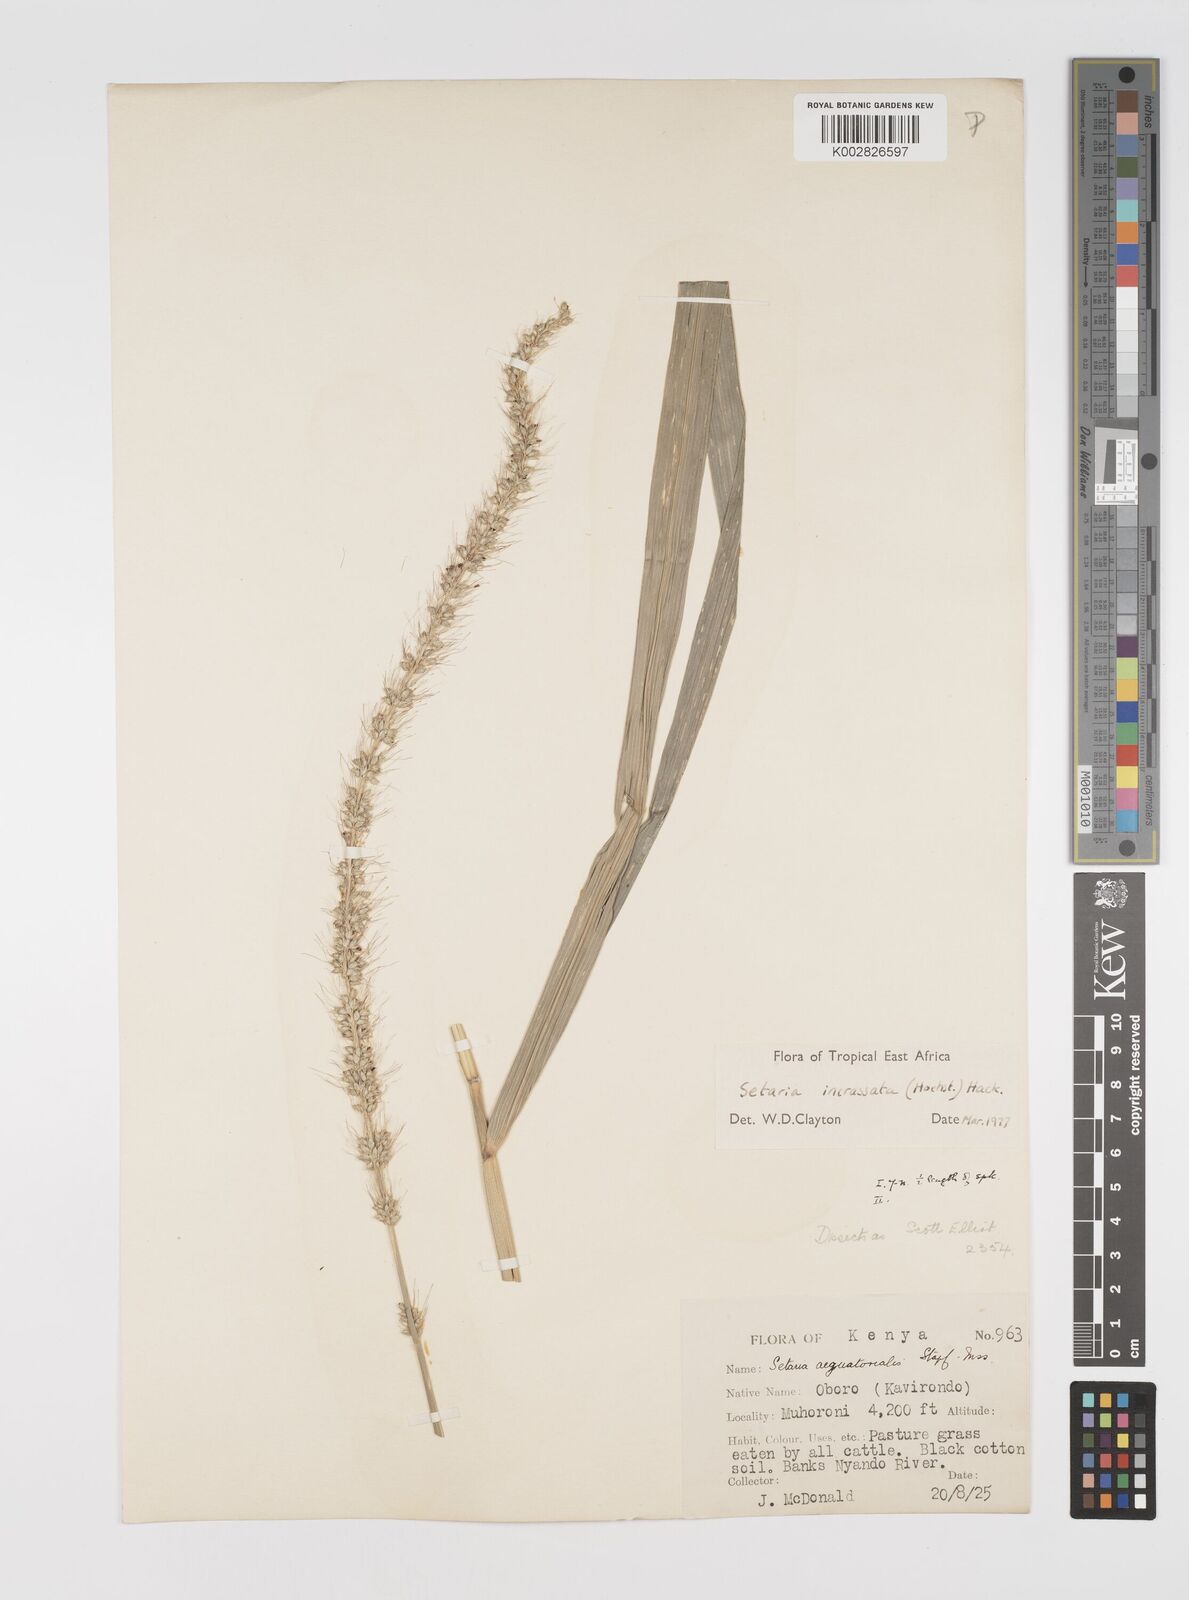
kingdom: Plantae
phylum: Tracheophyta
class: Liliopsida
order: Poales
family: Poaceae
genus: Setaria
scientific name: Setaria incrassata
